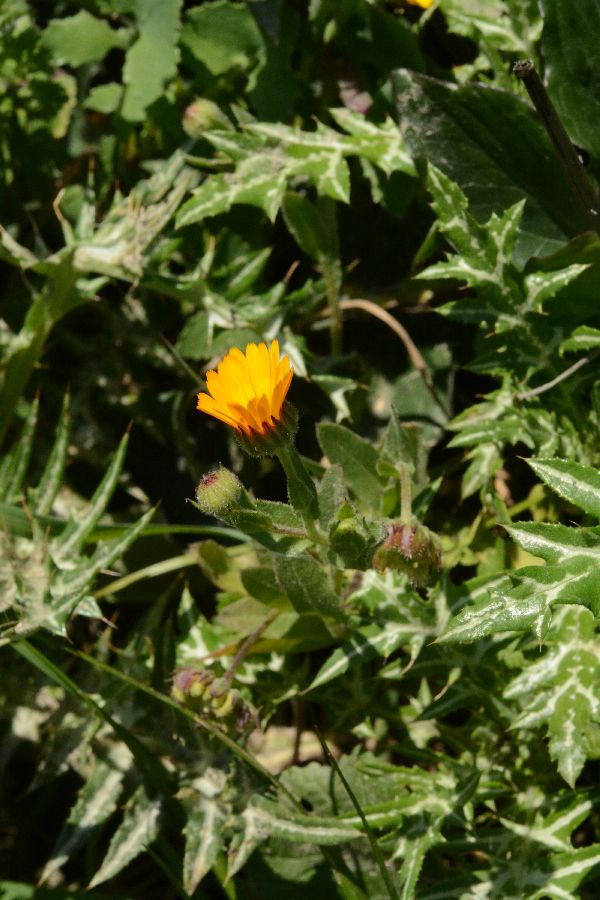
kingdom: Plantae
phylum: Tracheophyta
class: Magnoliopsida
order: Asterales
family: Asteraceae
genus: Calendula
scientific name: Calendula arvensis
